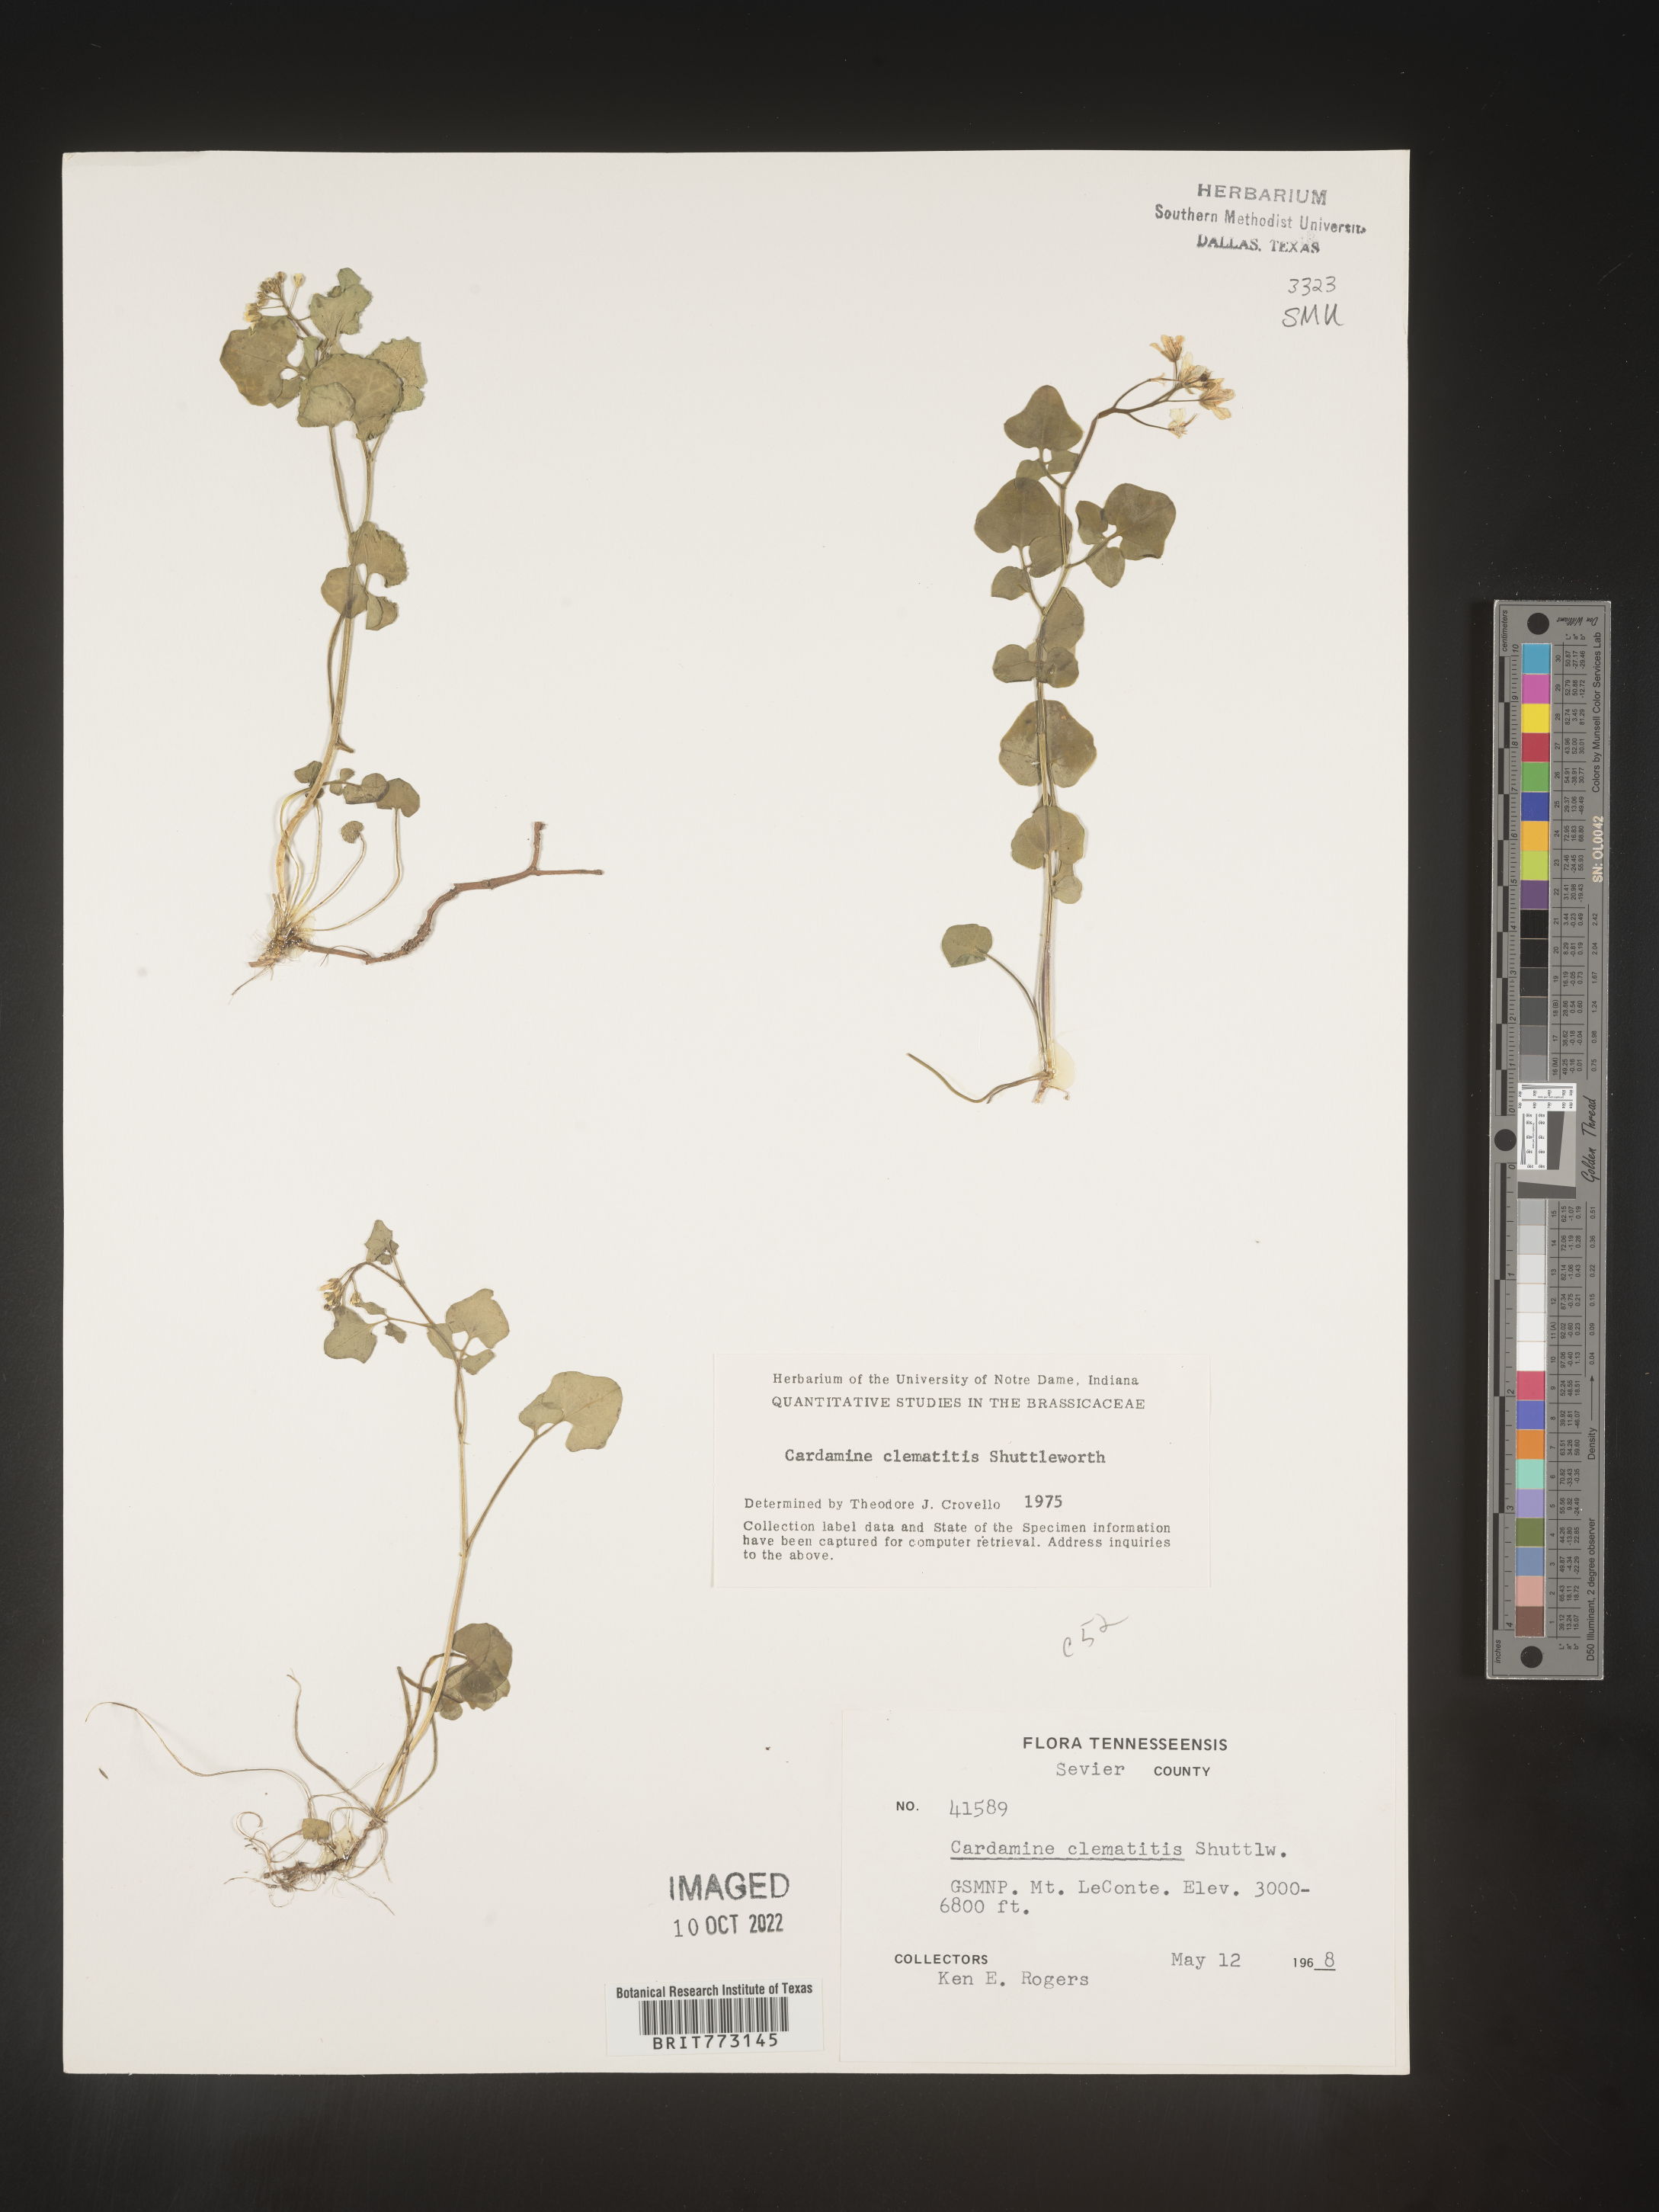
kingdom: Plantae
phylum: Tracheophyta
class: Magnoliopsida
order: Brassicales
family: Brassicaceae
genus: Cardamine
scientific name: Cardamine
